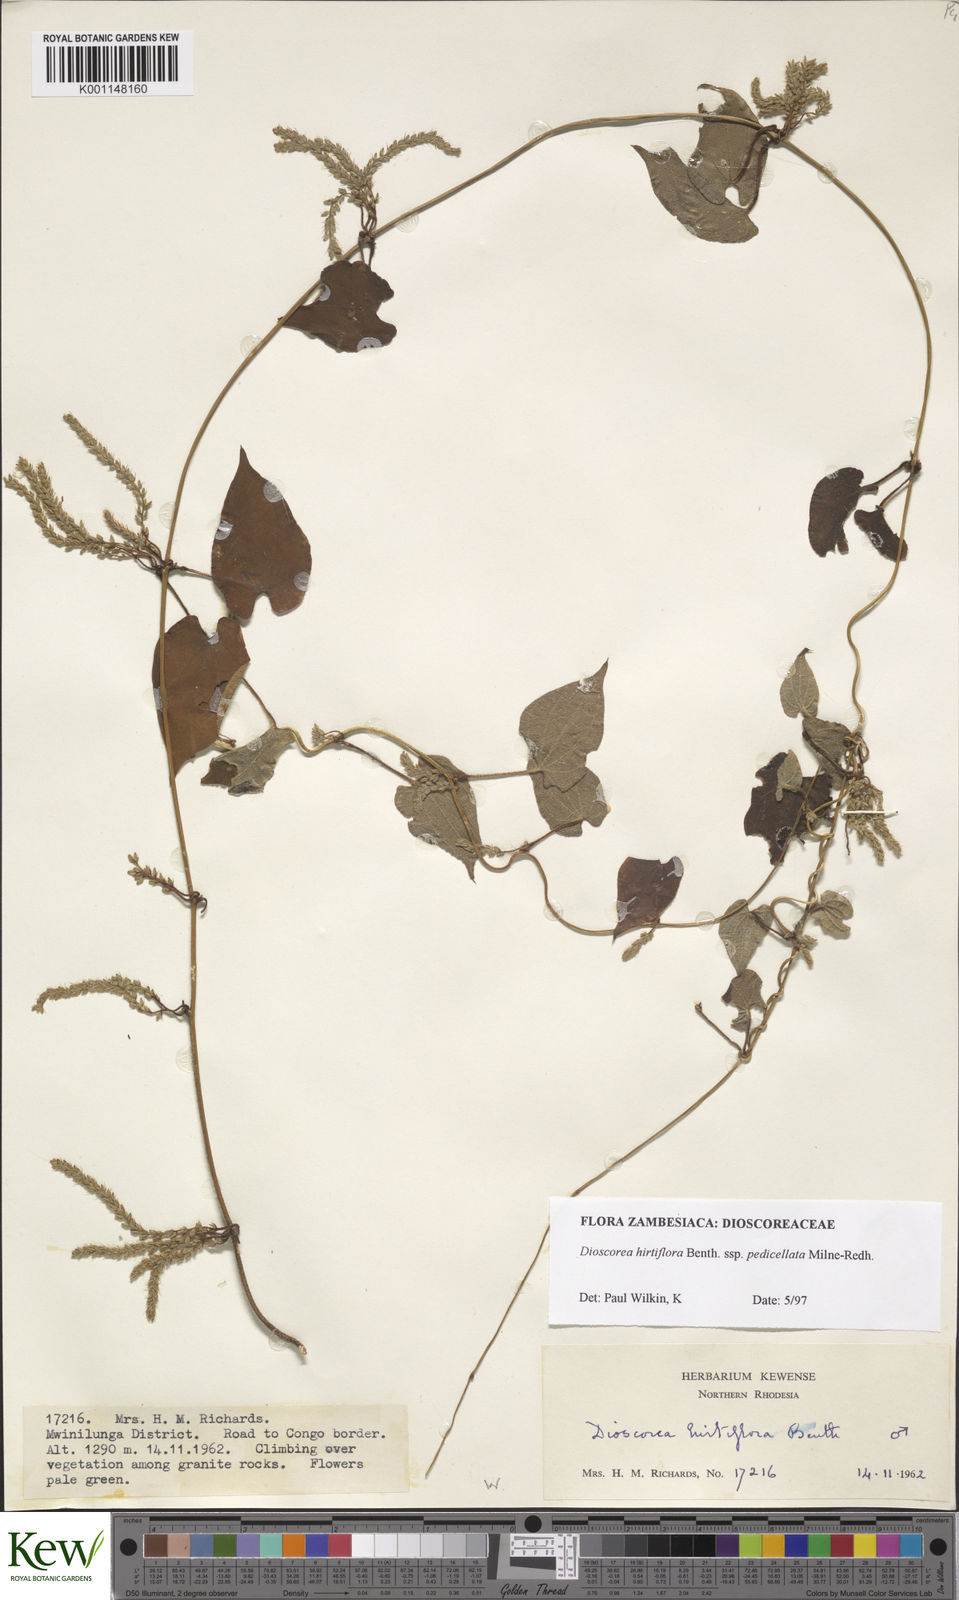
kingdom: Plantae
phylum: Tracheophyta
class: Liliopsida
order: Dioscoreales
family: Dioscoreaceae
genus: Dioscorea
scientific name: Dioscorea hirtiflora
